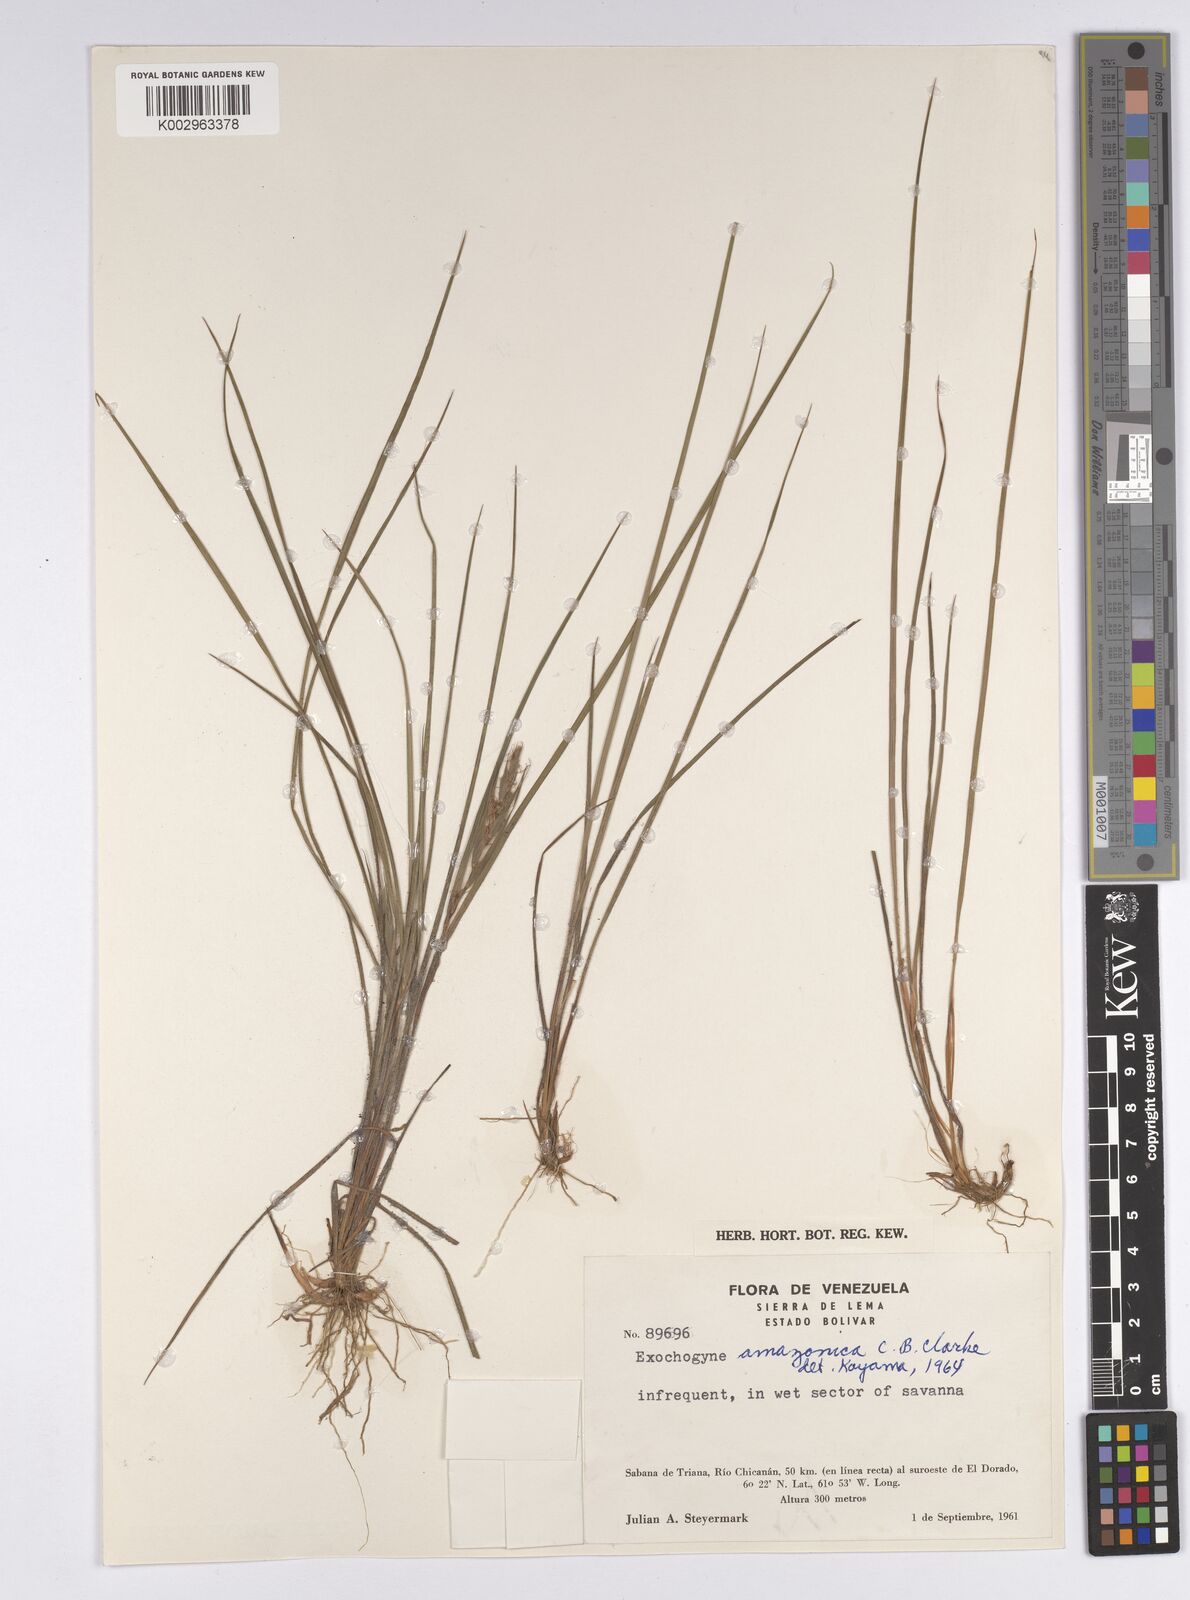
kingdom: Plantae
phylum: Tracheophyta
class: Liliopsida
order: Poales
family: Cyperaceae
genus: Exochogyne
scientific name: Exochogyne amazonica
